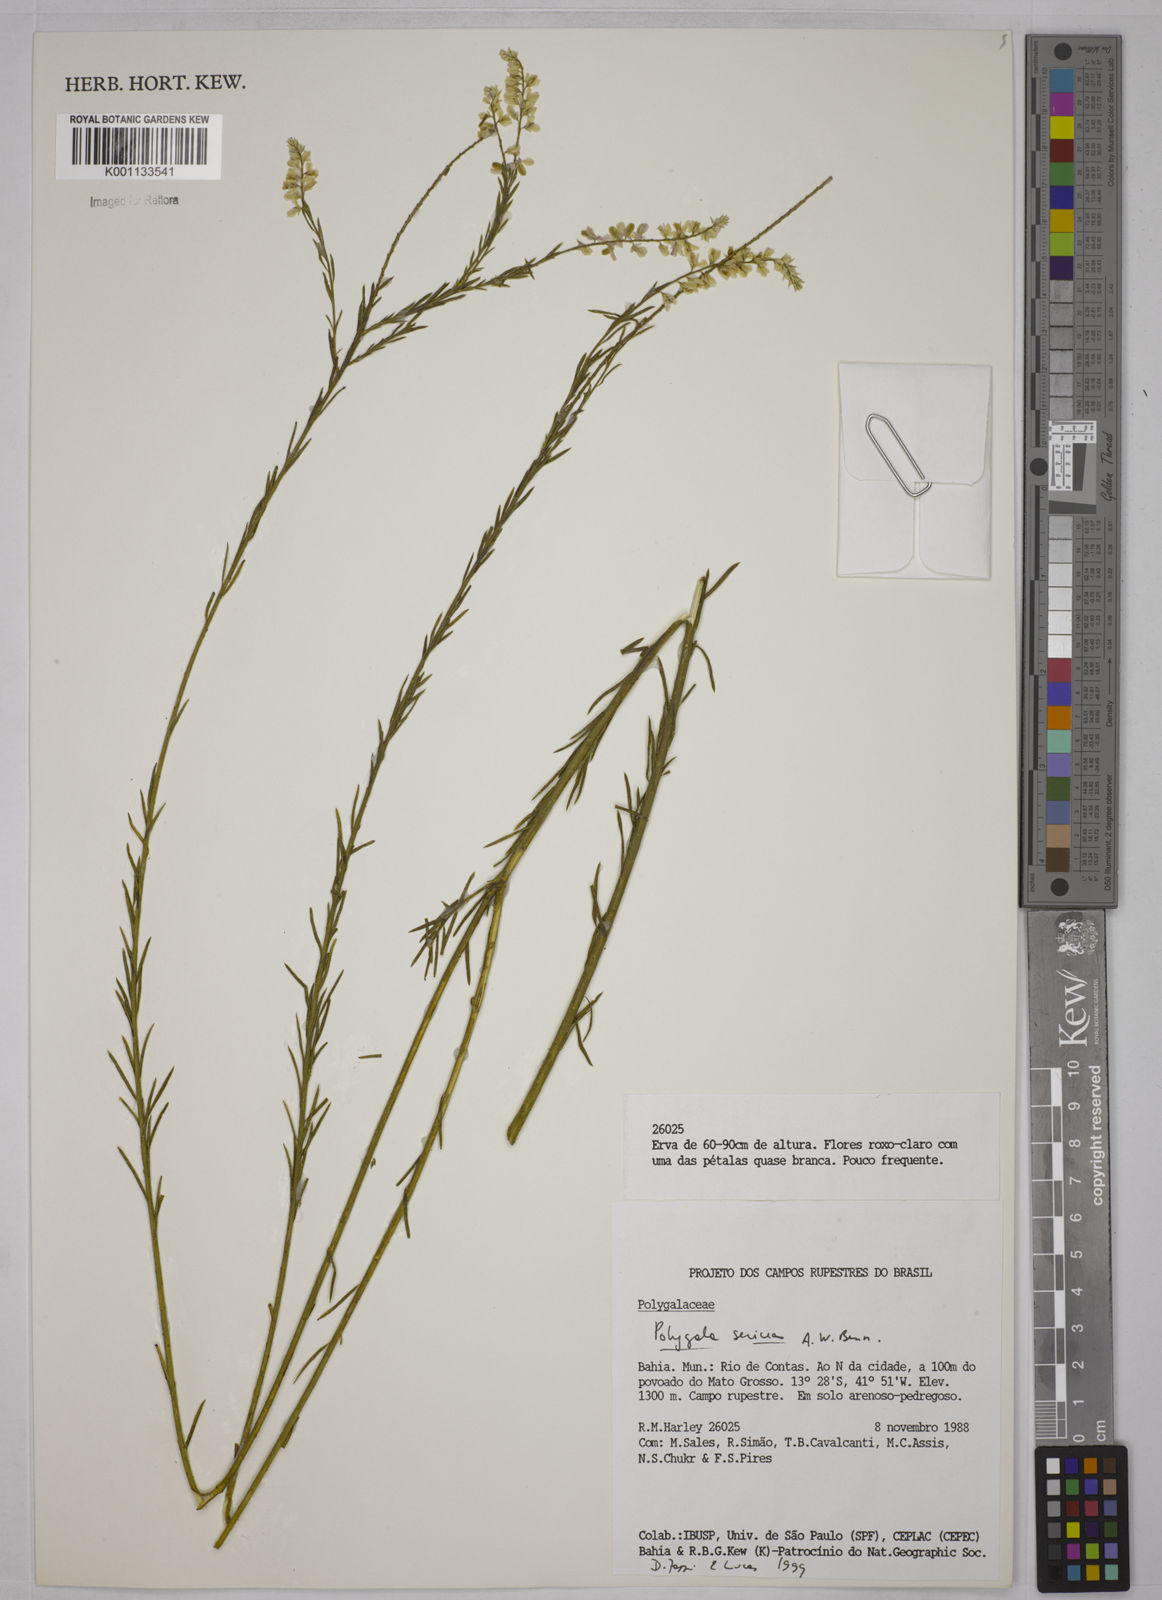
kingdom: Plantae
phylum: Tracheophyta
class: Magnoliopsida
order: Fabales
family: Polygalaceae
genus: Polygala
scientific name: Polygala sericea
